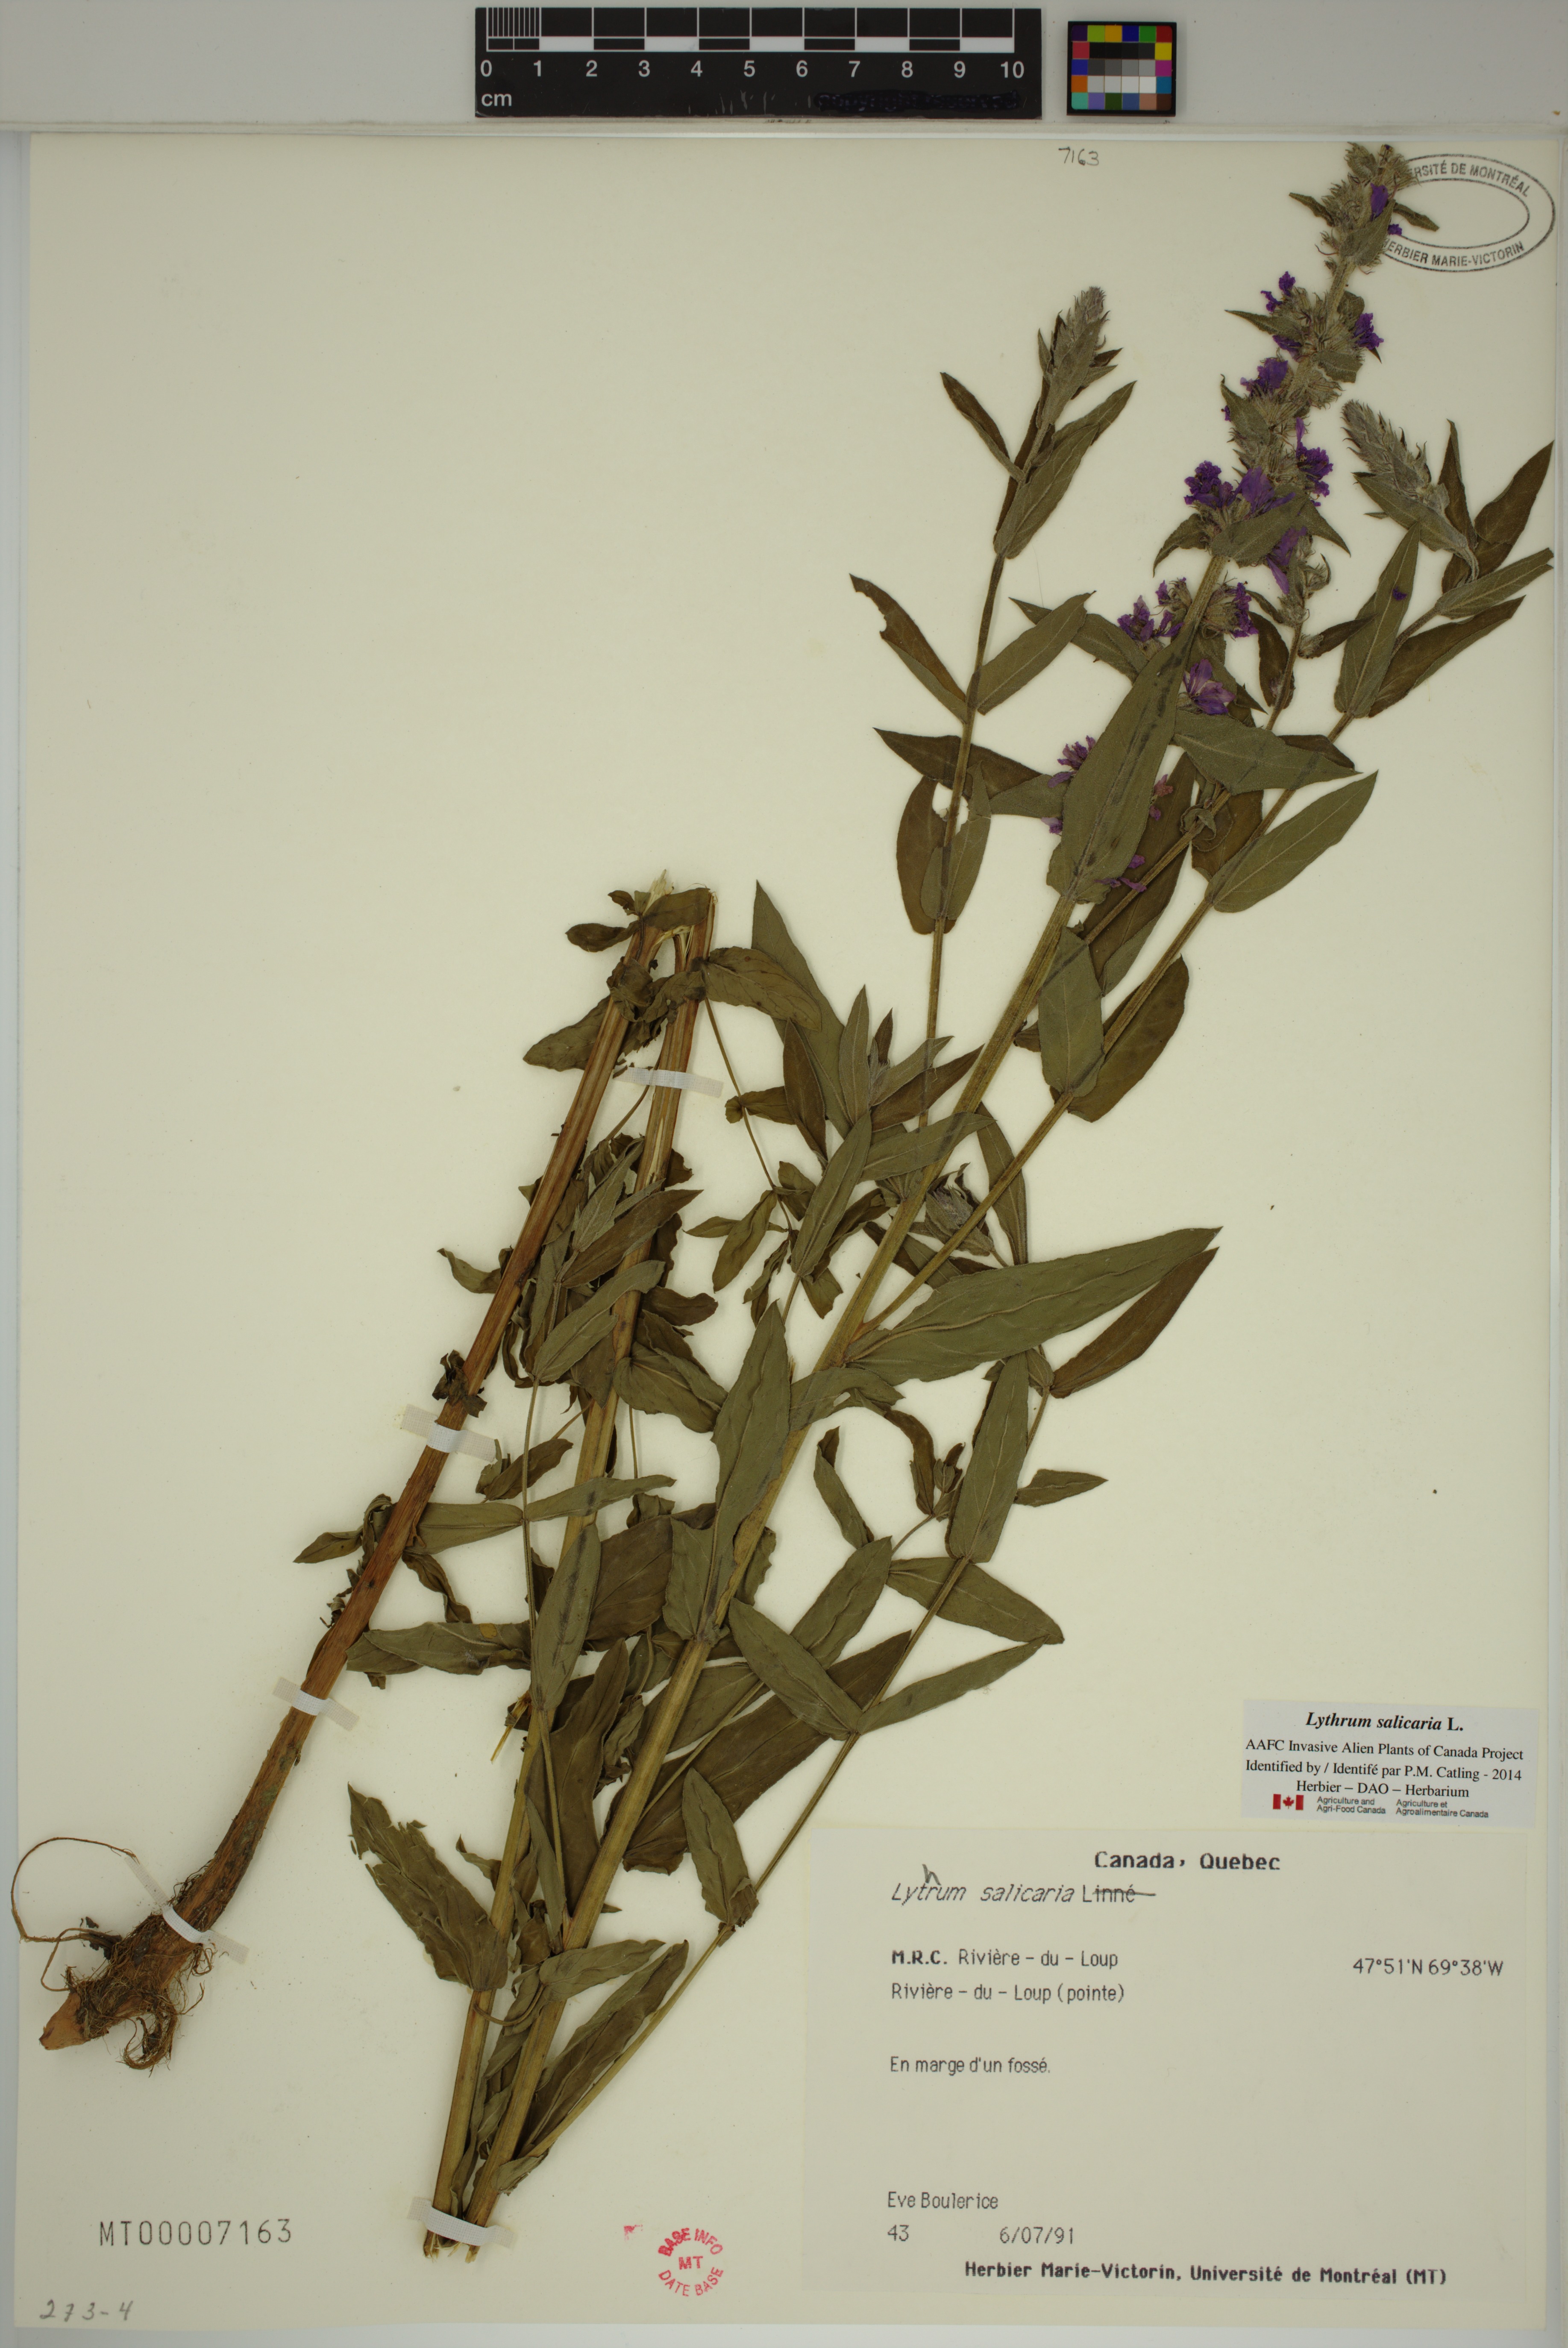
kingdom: Plantae
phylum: Tracheophyta
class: Magnoliopsida
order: Myrtales
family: Lythraceae
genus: Lythrum
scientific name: Lythrum salicaria
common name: Purple loosestrife
